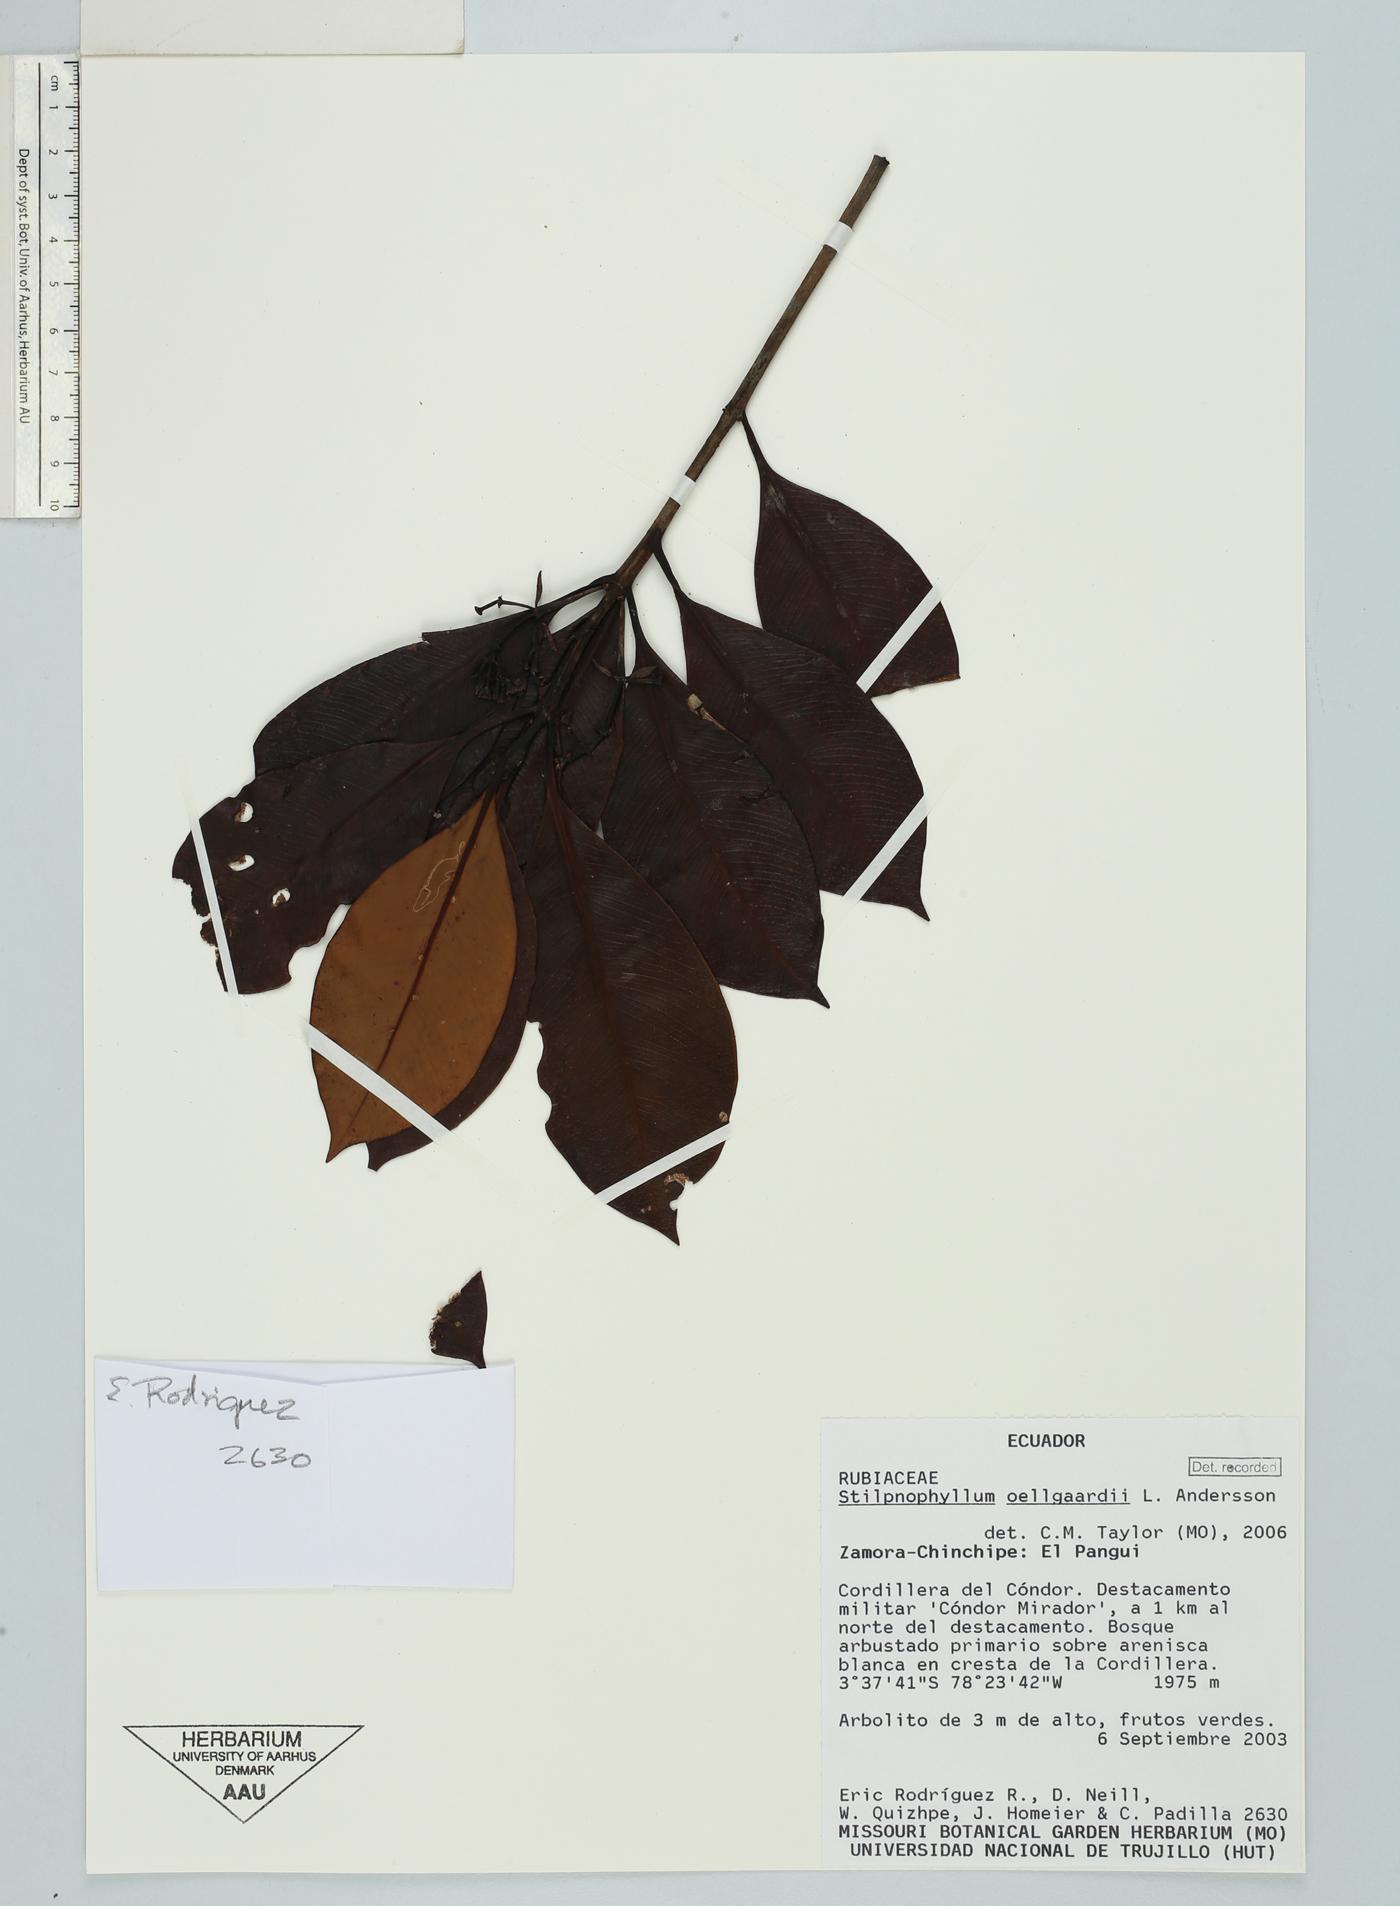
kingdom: Plantae
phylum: Tracheophyta
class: Magnoliopsida
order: Gentianales
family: Rubiaceae
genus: Stilpnophyllum
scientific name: Stilpnophyllum oellgaardii
